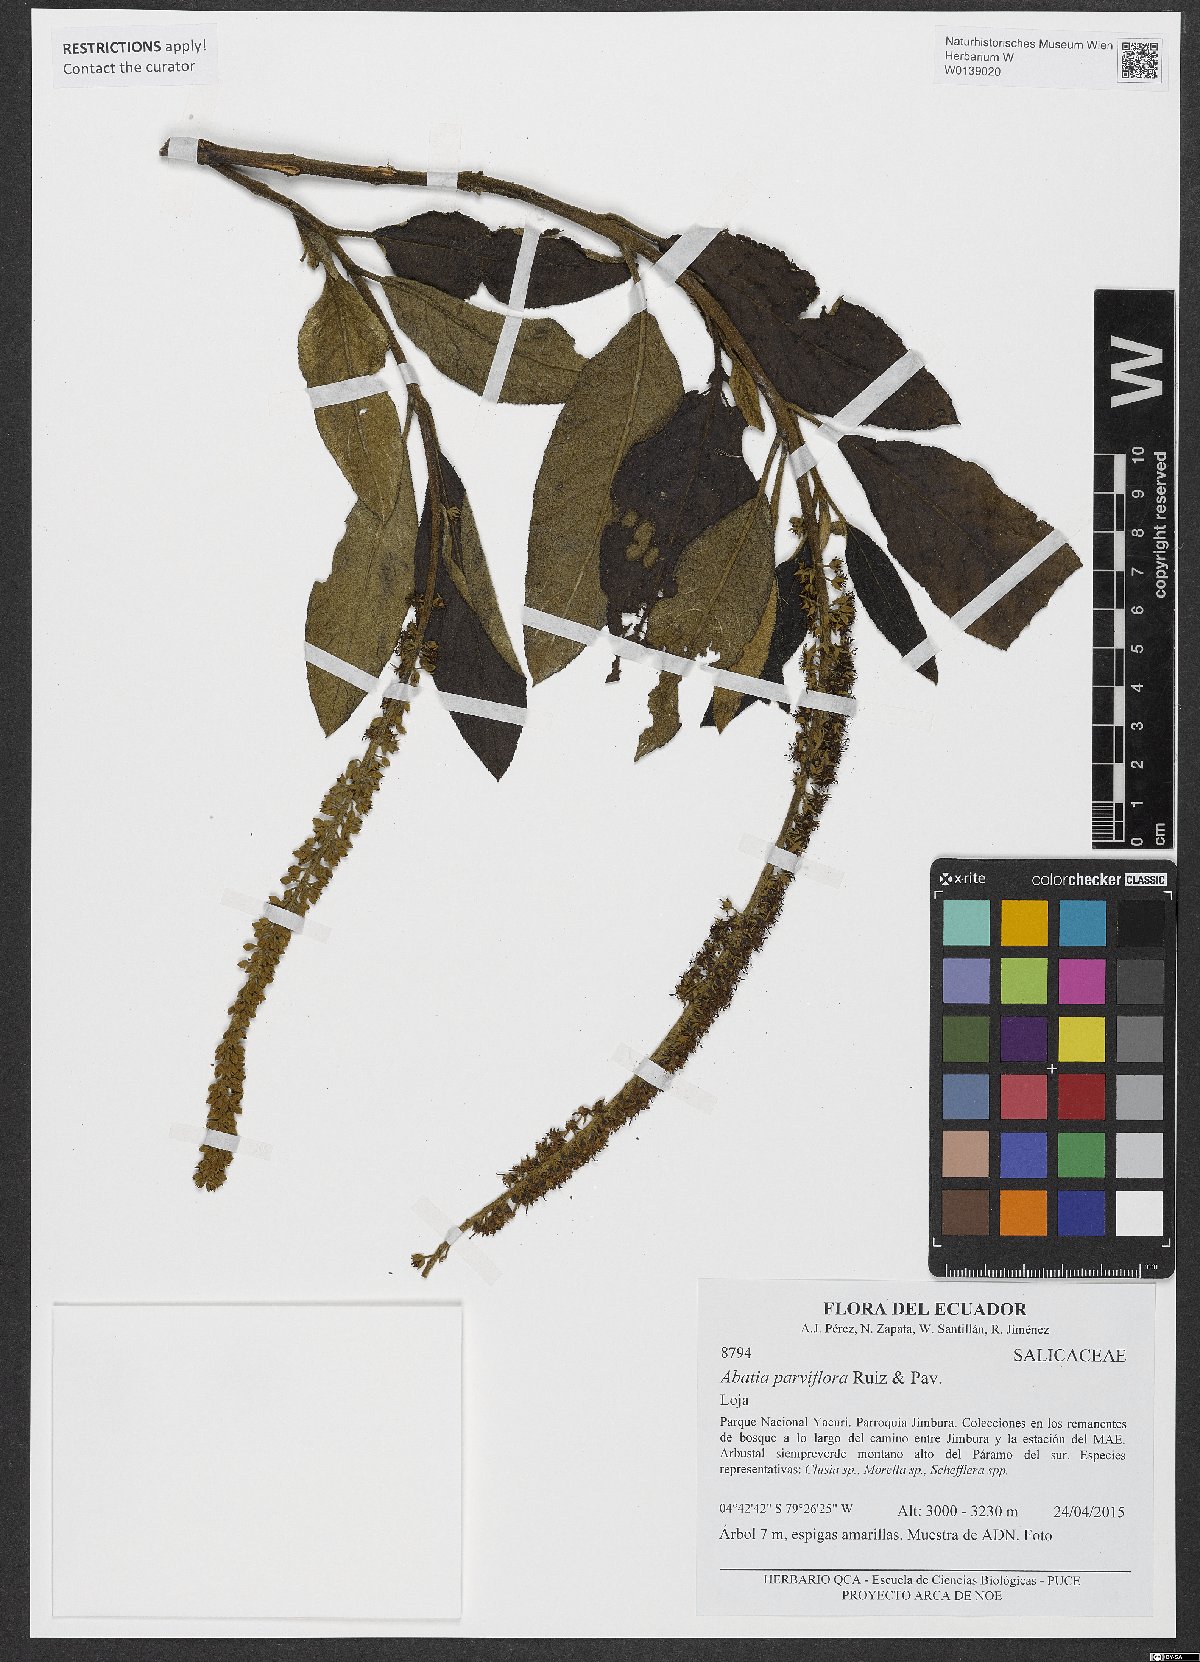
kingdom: Plantae
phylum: Tracheophyta
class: Magnoliopsida
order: Malpighiales
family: Salicaceae
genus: Abatia
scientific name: Abatia parviflora
